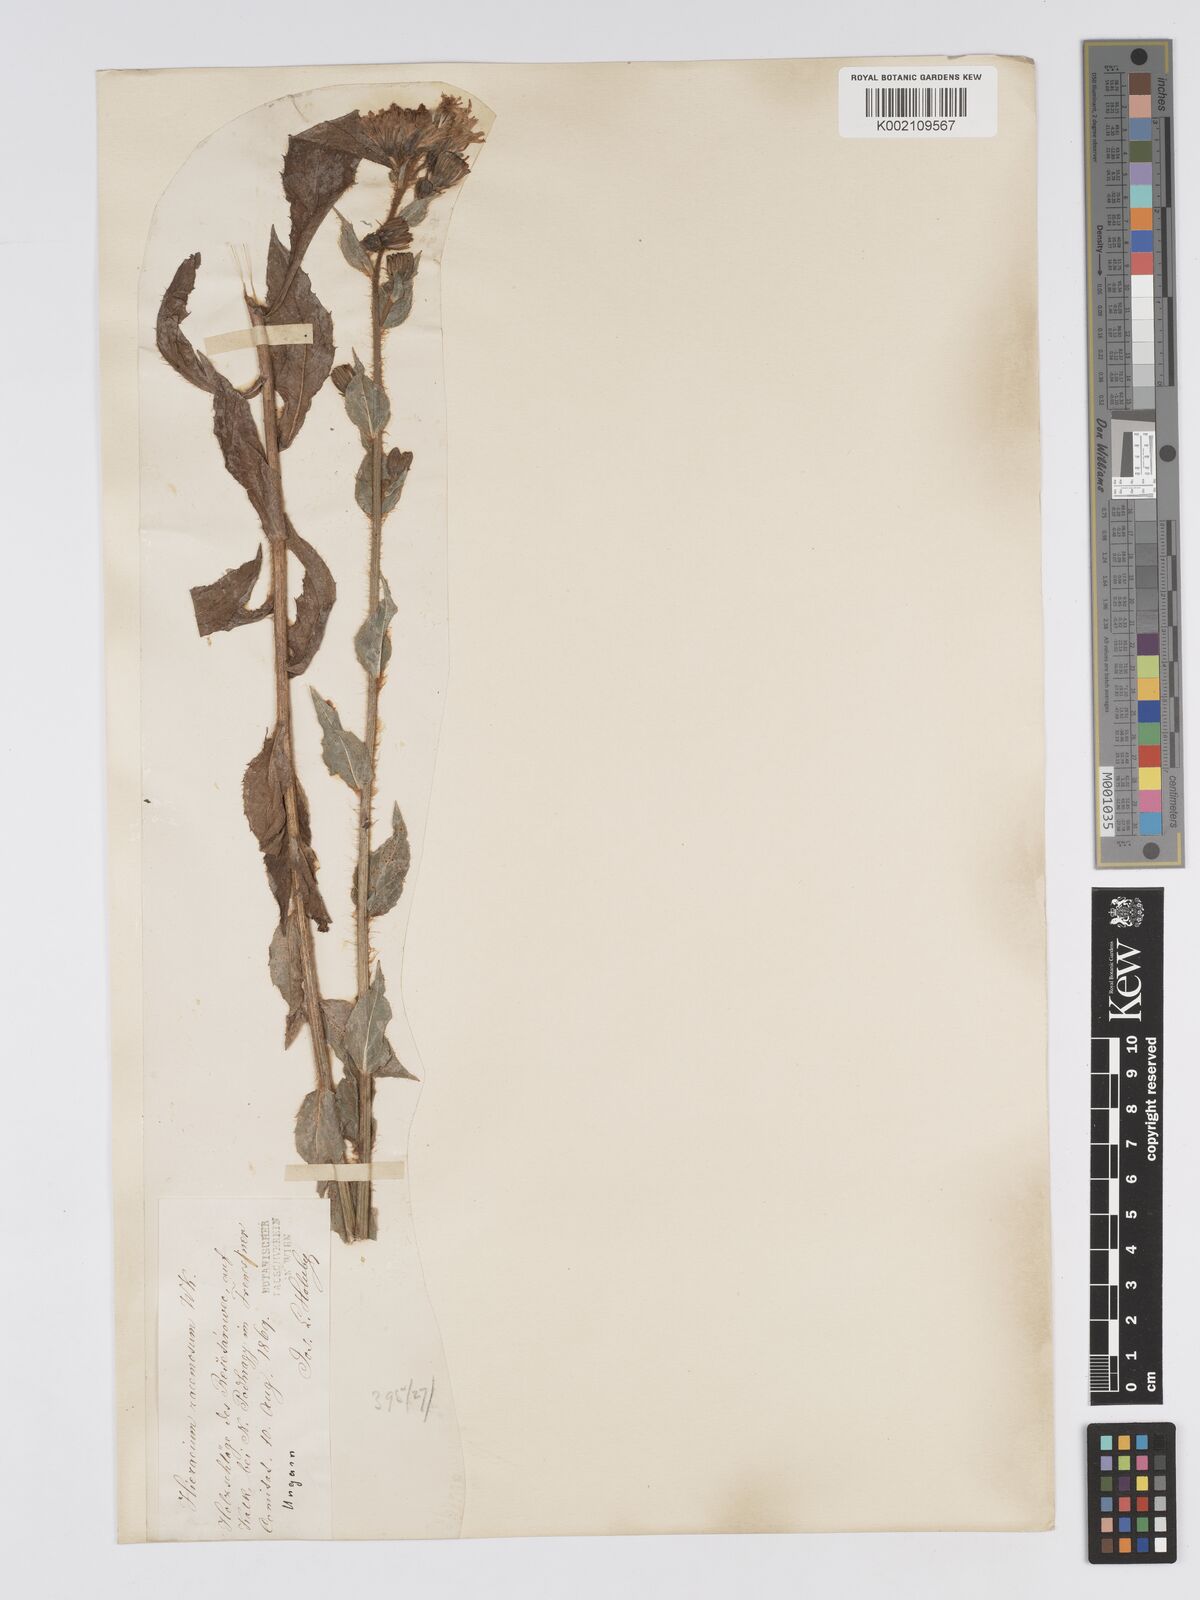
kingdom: Plantae
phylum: Tracheophyta
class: Magnoliopsida
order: Asterales
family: Asteraceae
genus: Hieracium
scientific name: Hieracium racemosum
